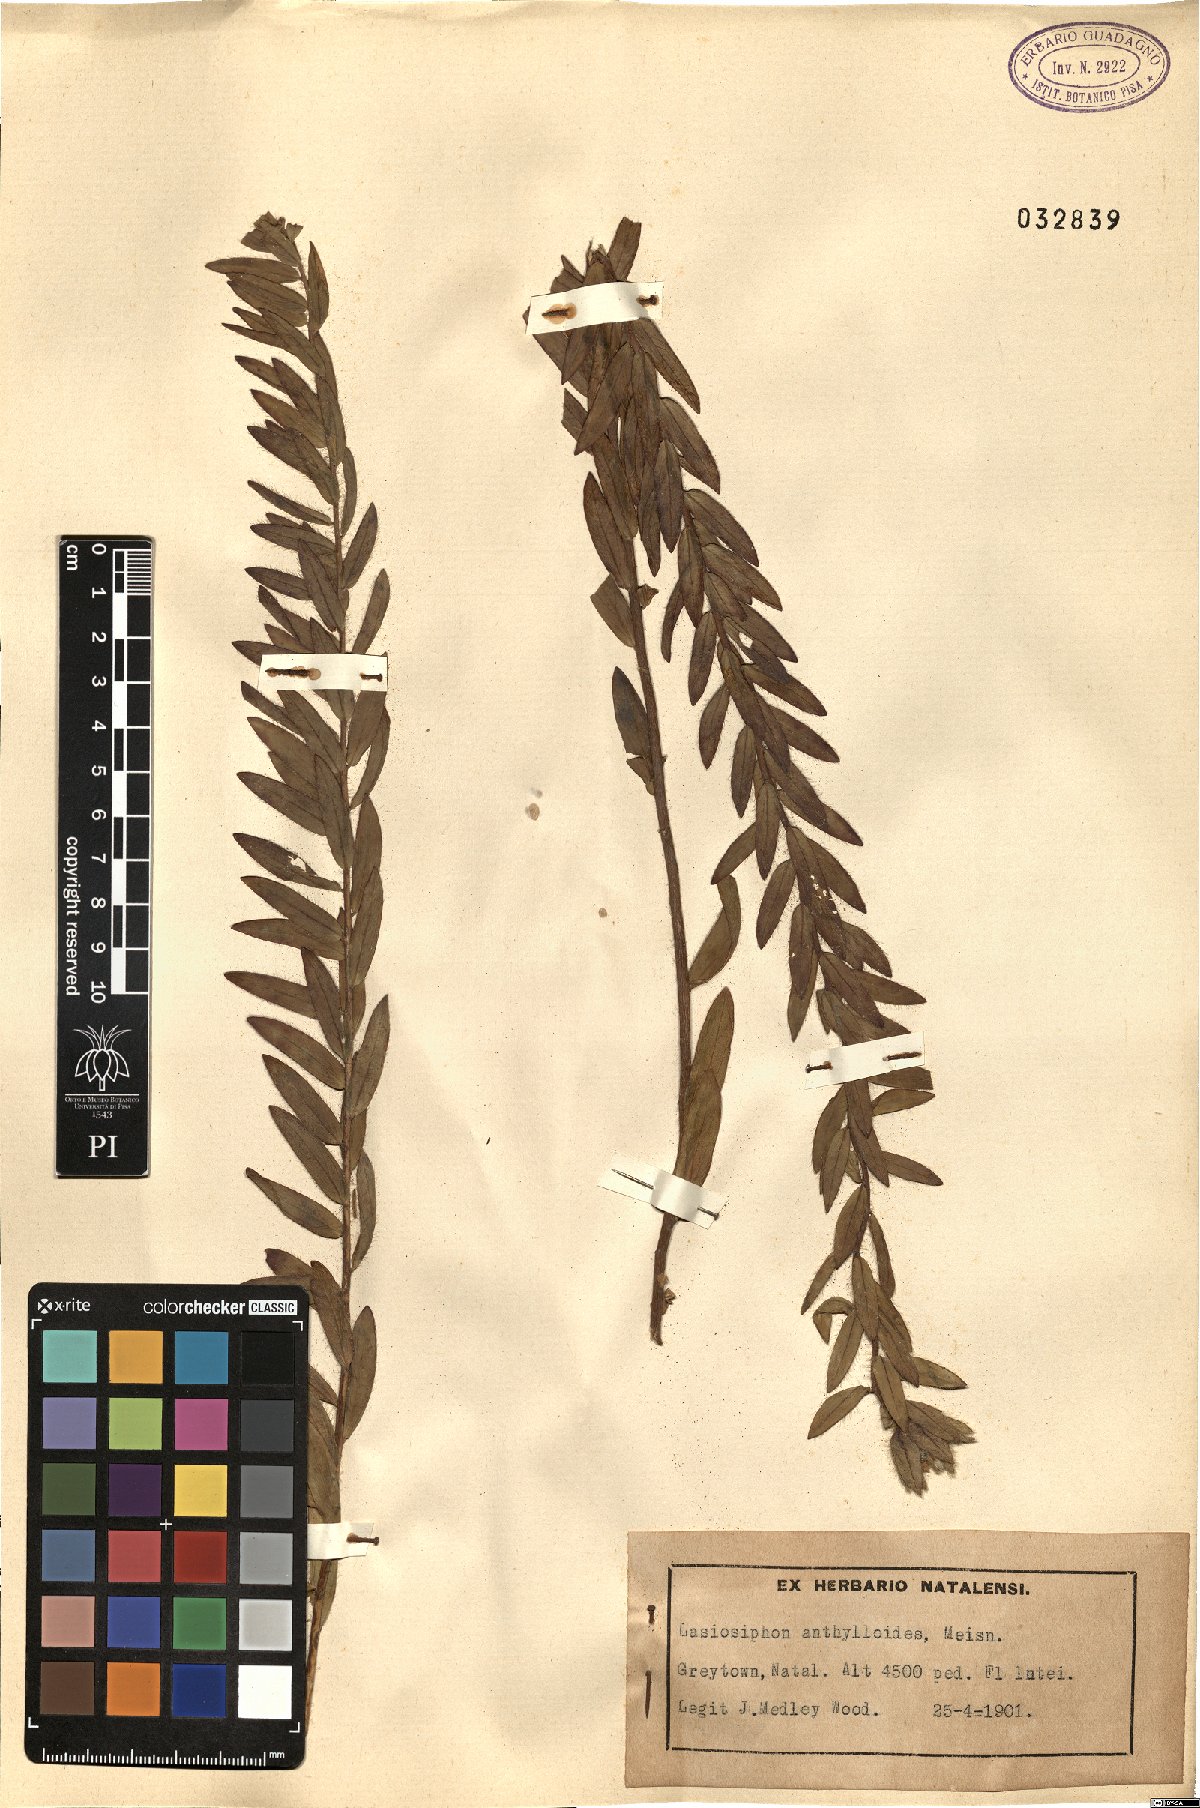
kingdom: Plantae
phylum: Tracheophyta
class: Magnoliopsida
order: Malvales
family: Thymelaeaceae
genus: Gnidia
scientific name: Gnidia anthylloides
